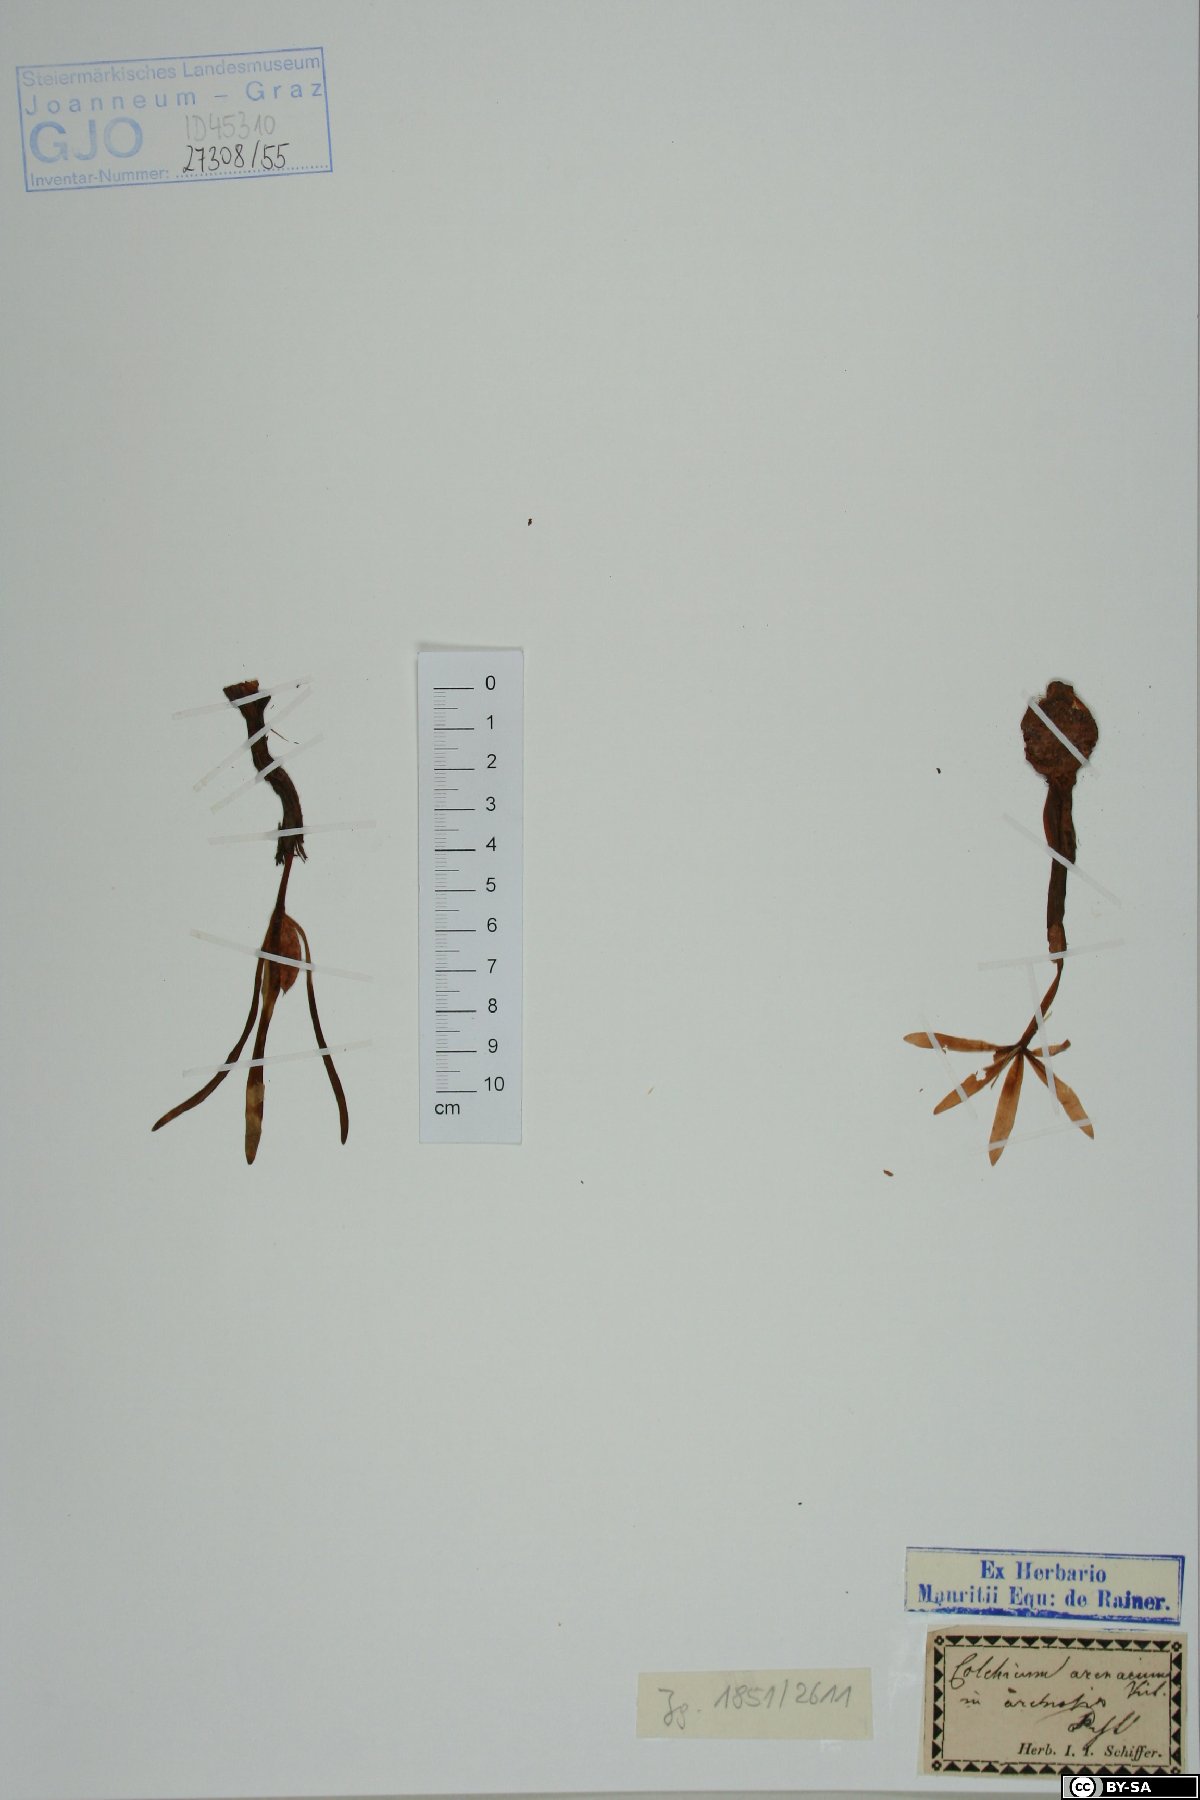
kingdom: Plantae
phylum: Tracheophyta
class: Liliopsida
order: Liliales
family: Colchicaceae
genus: Colchicum
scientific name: Colchicum arenarium
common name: Sand saffron
